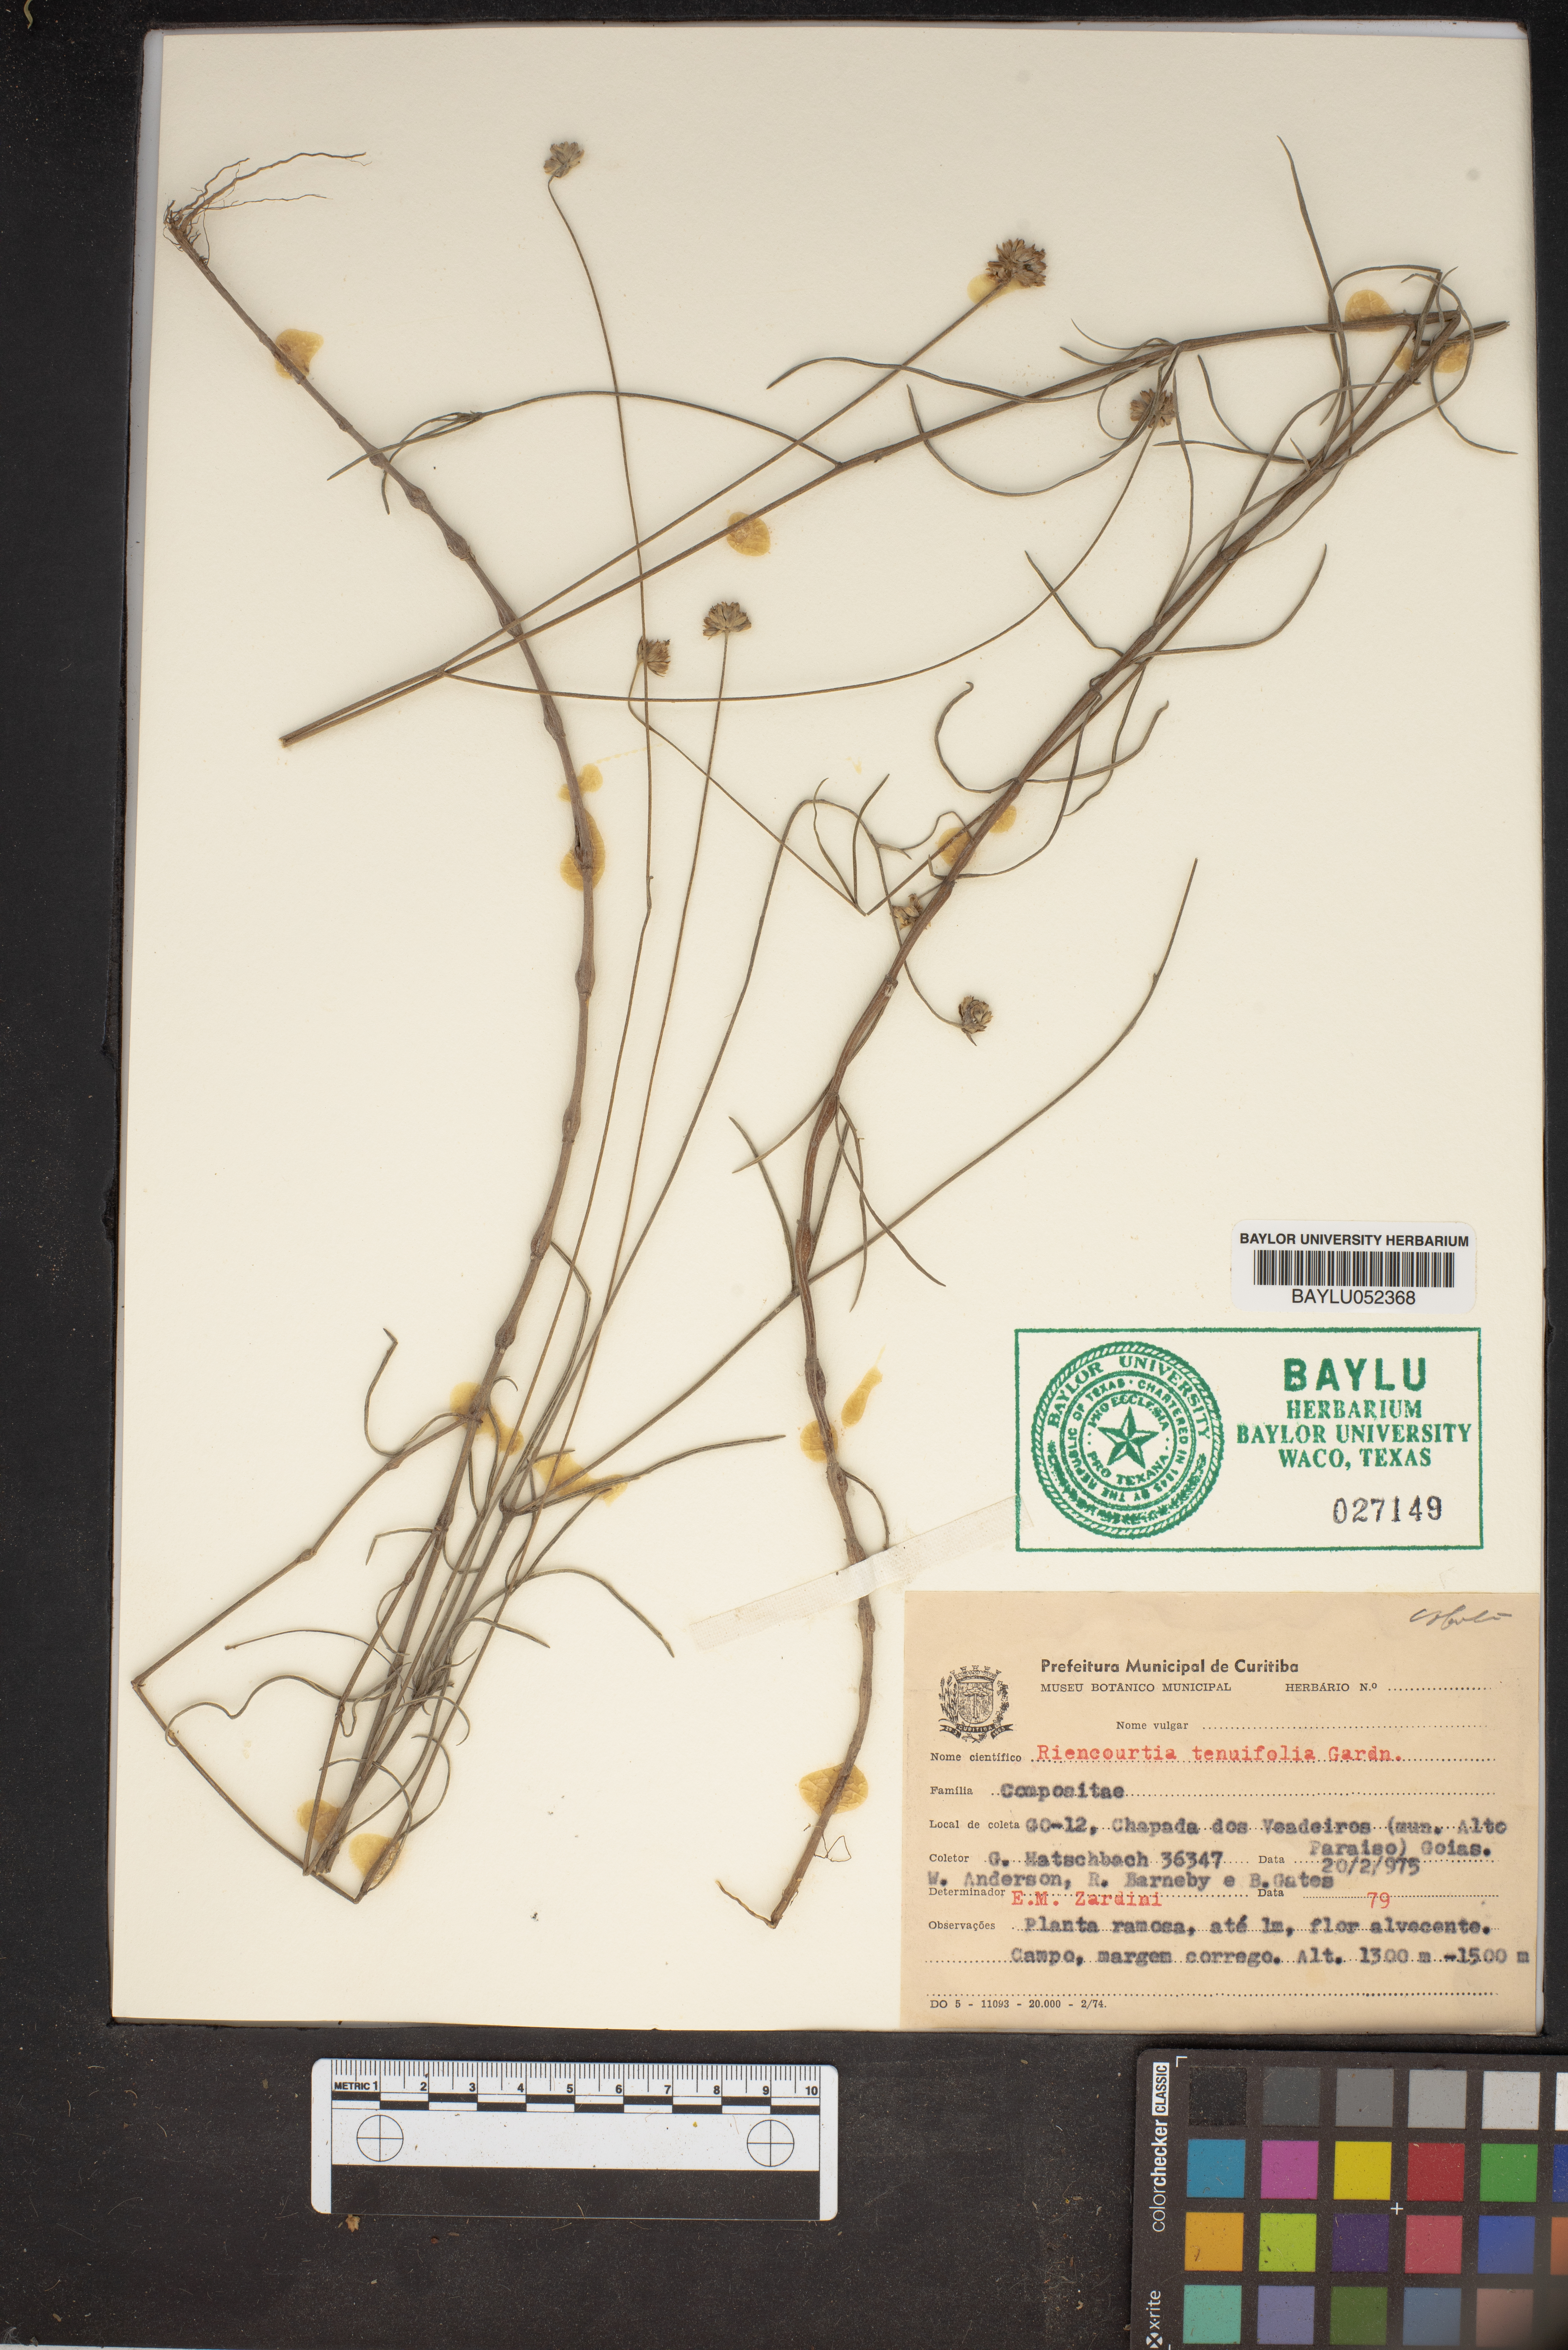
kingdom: Plantae
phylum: Tracheophyta
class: Magnoliopsida
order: Asterales
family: Asteraceae
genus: Riencourtia
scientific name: Riencourtia tenuifolia
